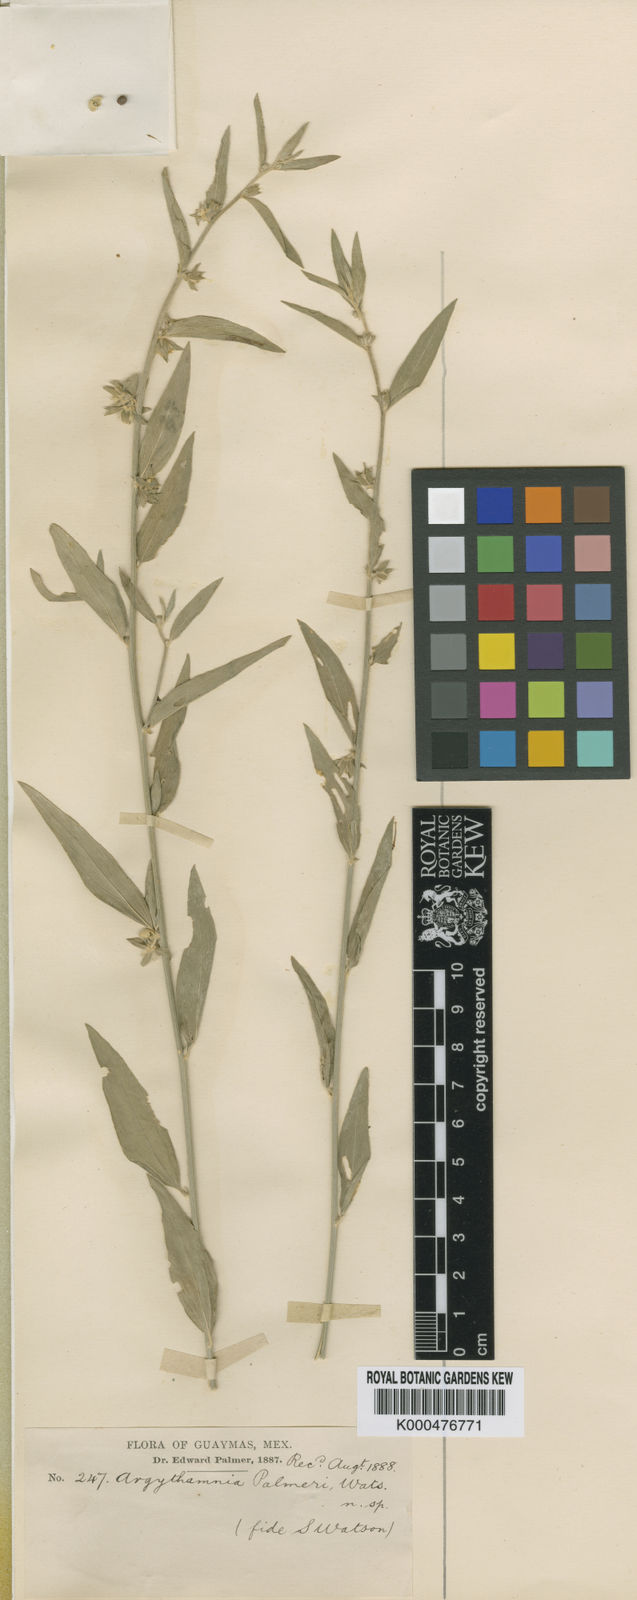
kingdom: Plantae
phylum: Tracheophyta
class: Magnoliopsida
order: Malpighiales
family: Euphorbiaceae
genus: Ditaxis
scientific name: Ditaxis lanceolata
